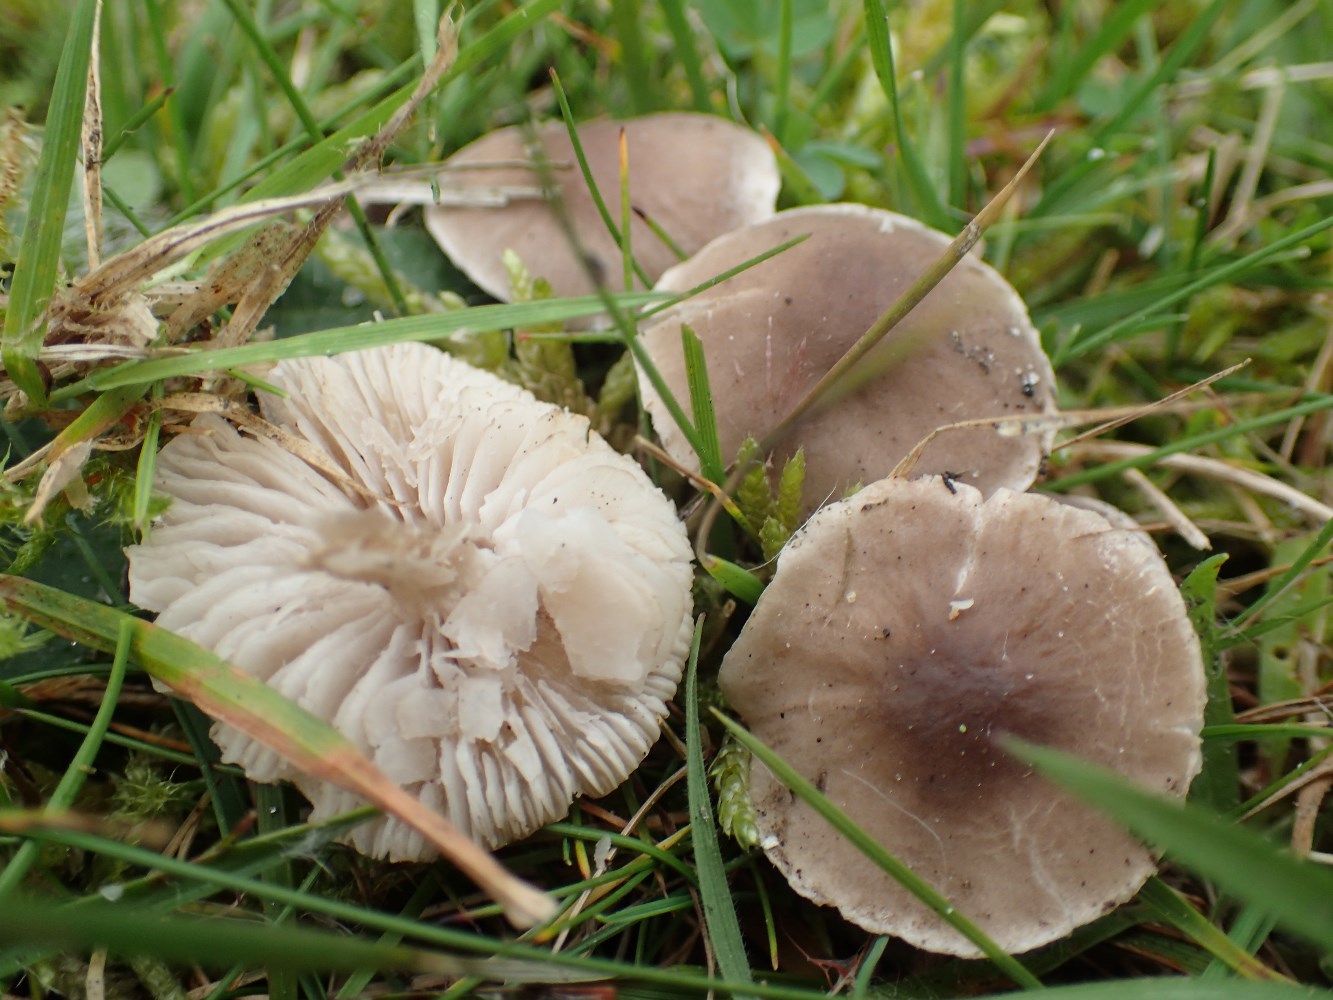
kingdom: Fungi
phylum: Basidiomycota
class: Agaricomycetes
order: Agaricales
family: Tricholomataceae
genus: Dermoloma
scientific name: Dermoloma cuneifolium
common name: eng-nonnehat
